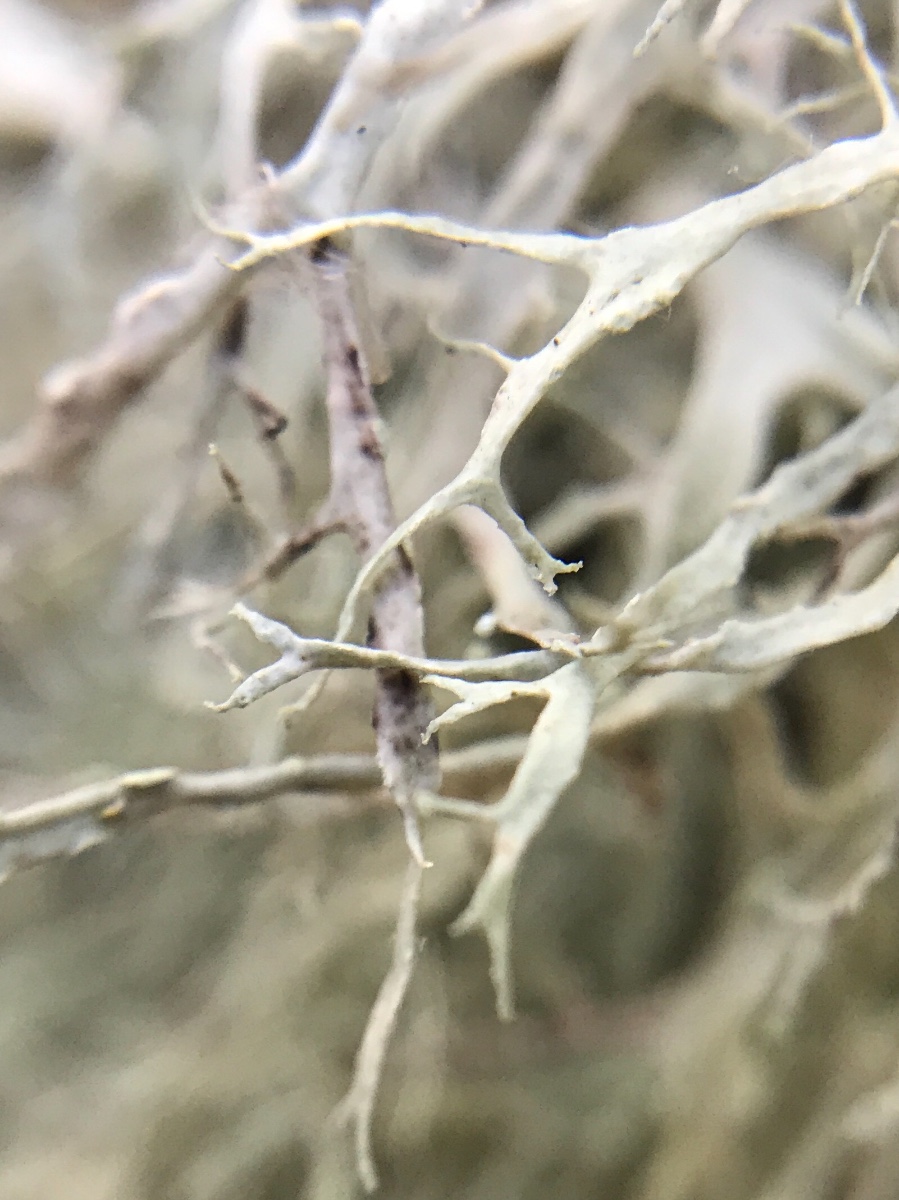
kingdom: Fungi
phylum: Ascomycota
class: Lecanoromycetes
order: Lecanorales
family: Ramalinaceae
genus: Ramalina
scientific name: Ramalina farinacea
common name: melet grenlav
